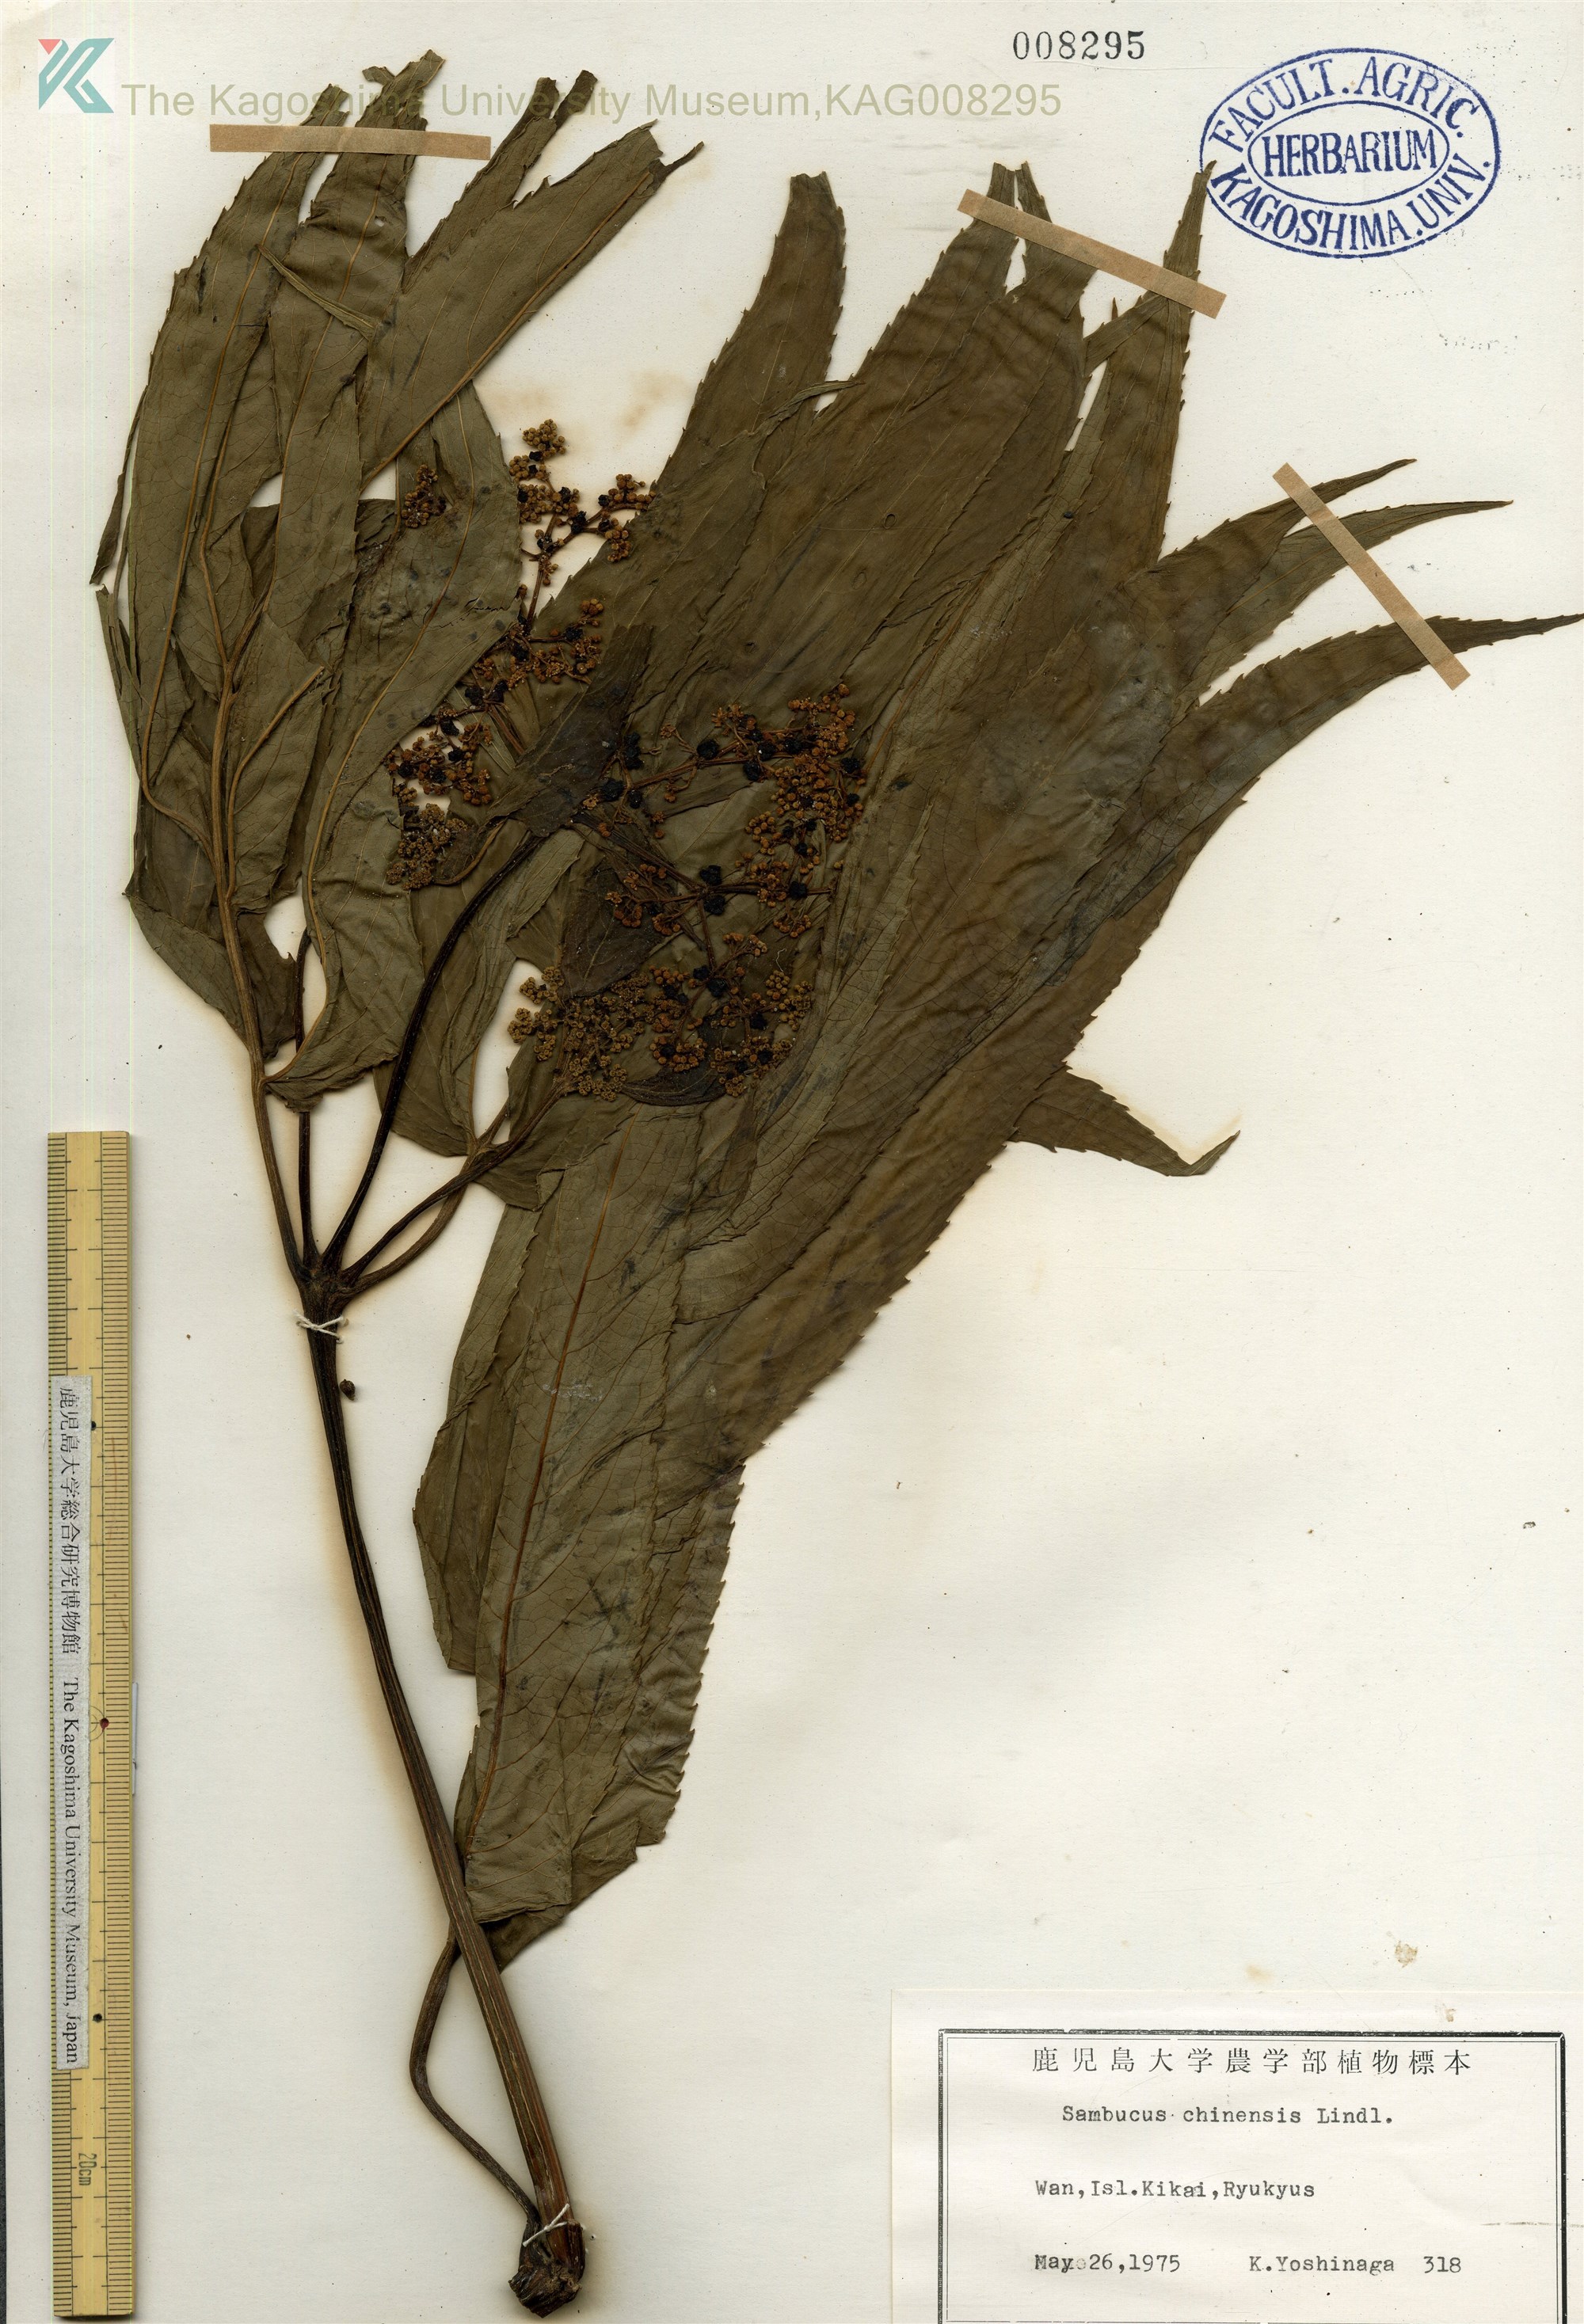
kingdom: Plantae
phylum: Tracheophyta
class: Magnoliopsida
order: Dipsacales
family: Viburnaceae
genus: Sambucus
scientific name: Sambucus javanica
